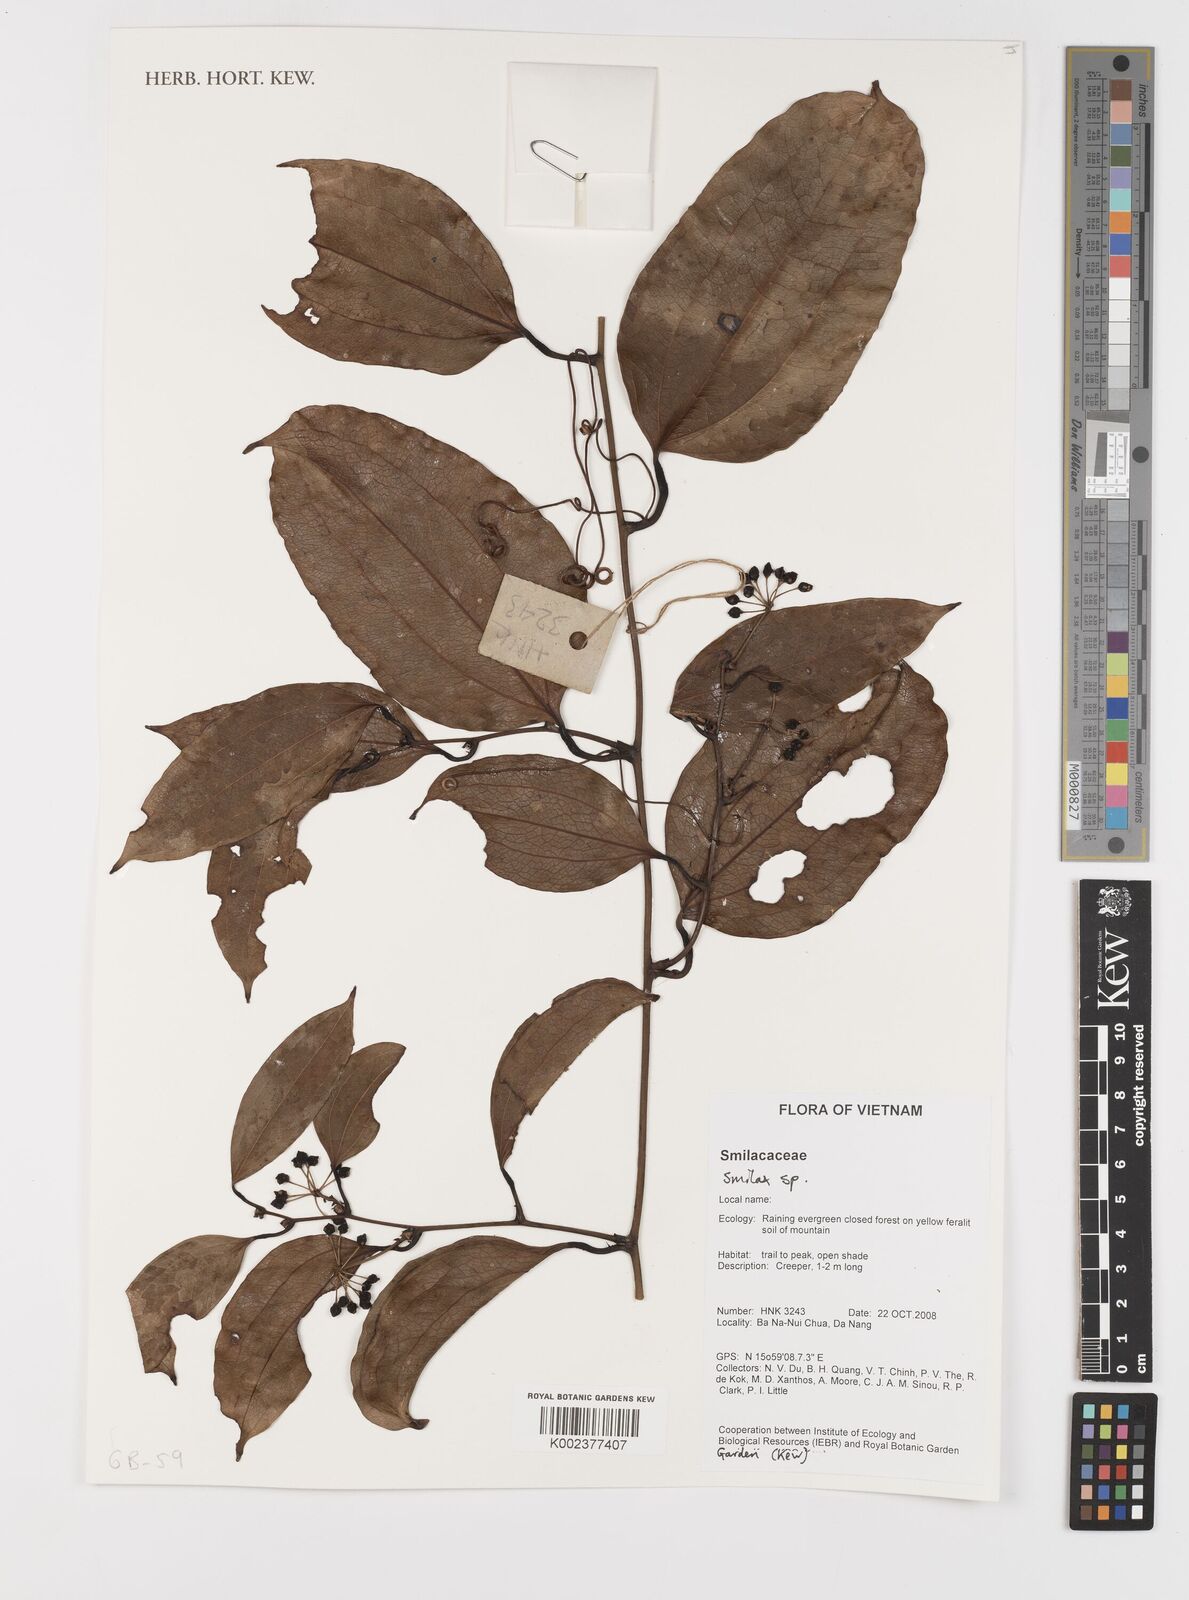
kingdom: Plantae
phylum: Tracheophyta
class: Liliopsida
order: Liliales
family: Smilacaceae
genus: Smilax
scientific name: Smilax
